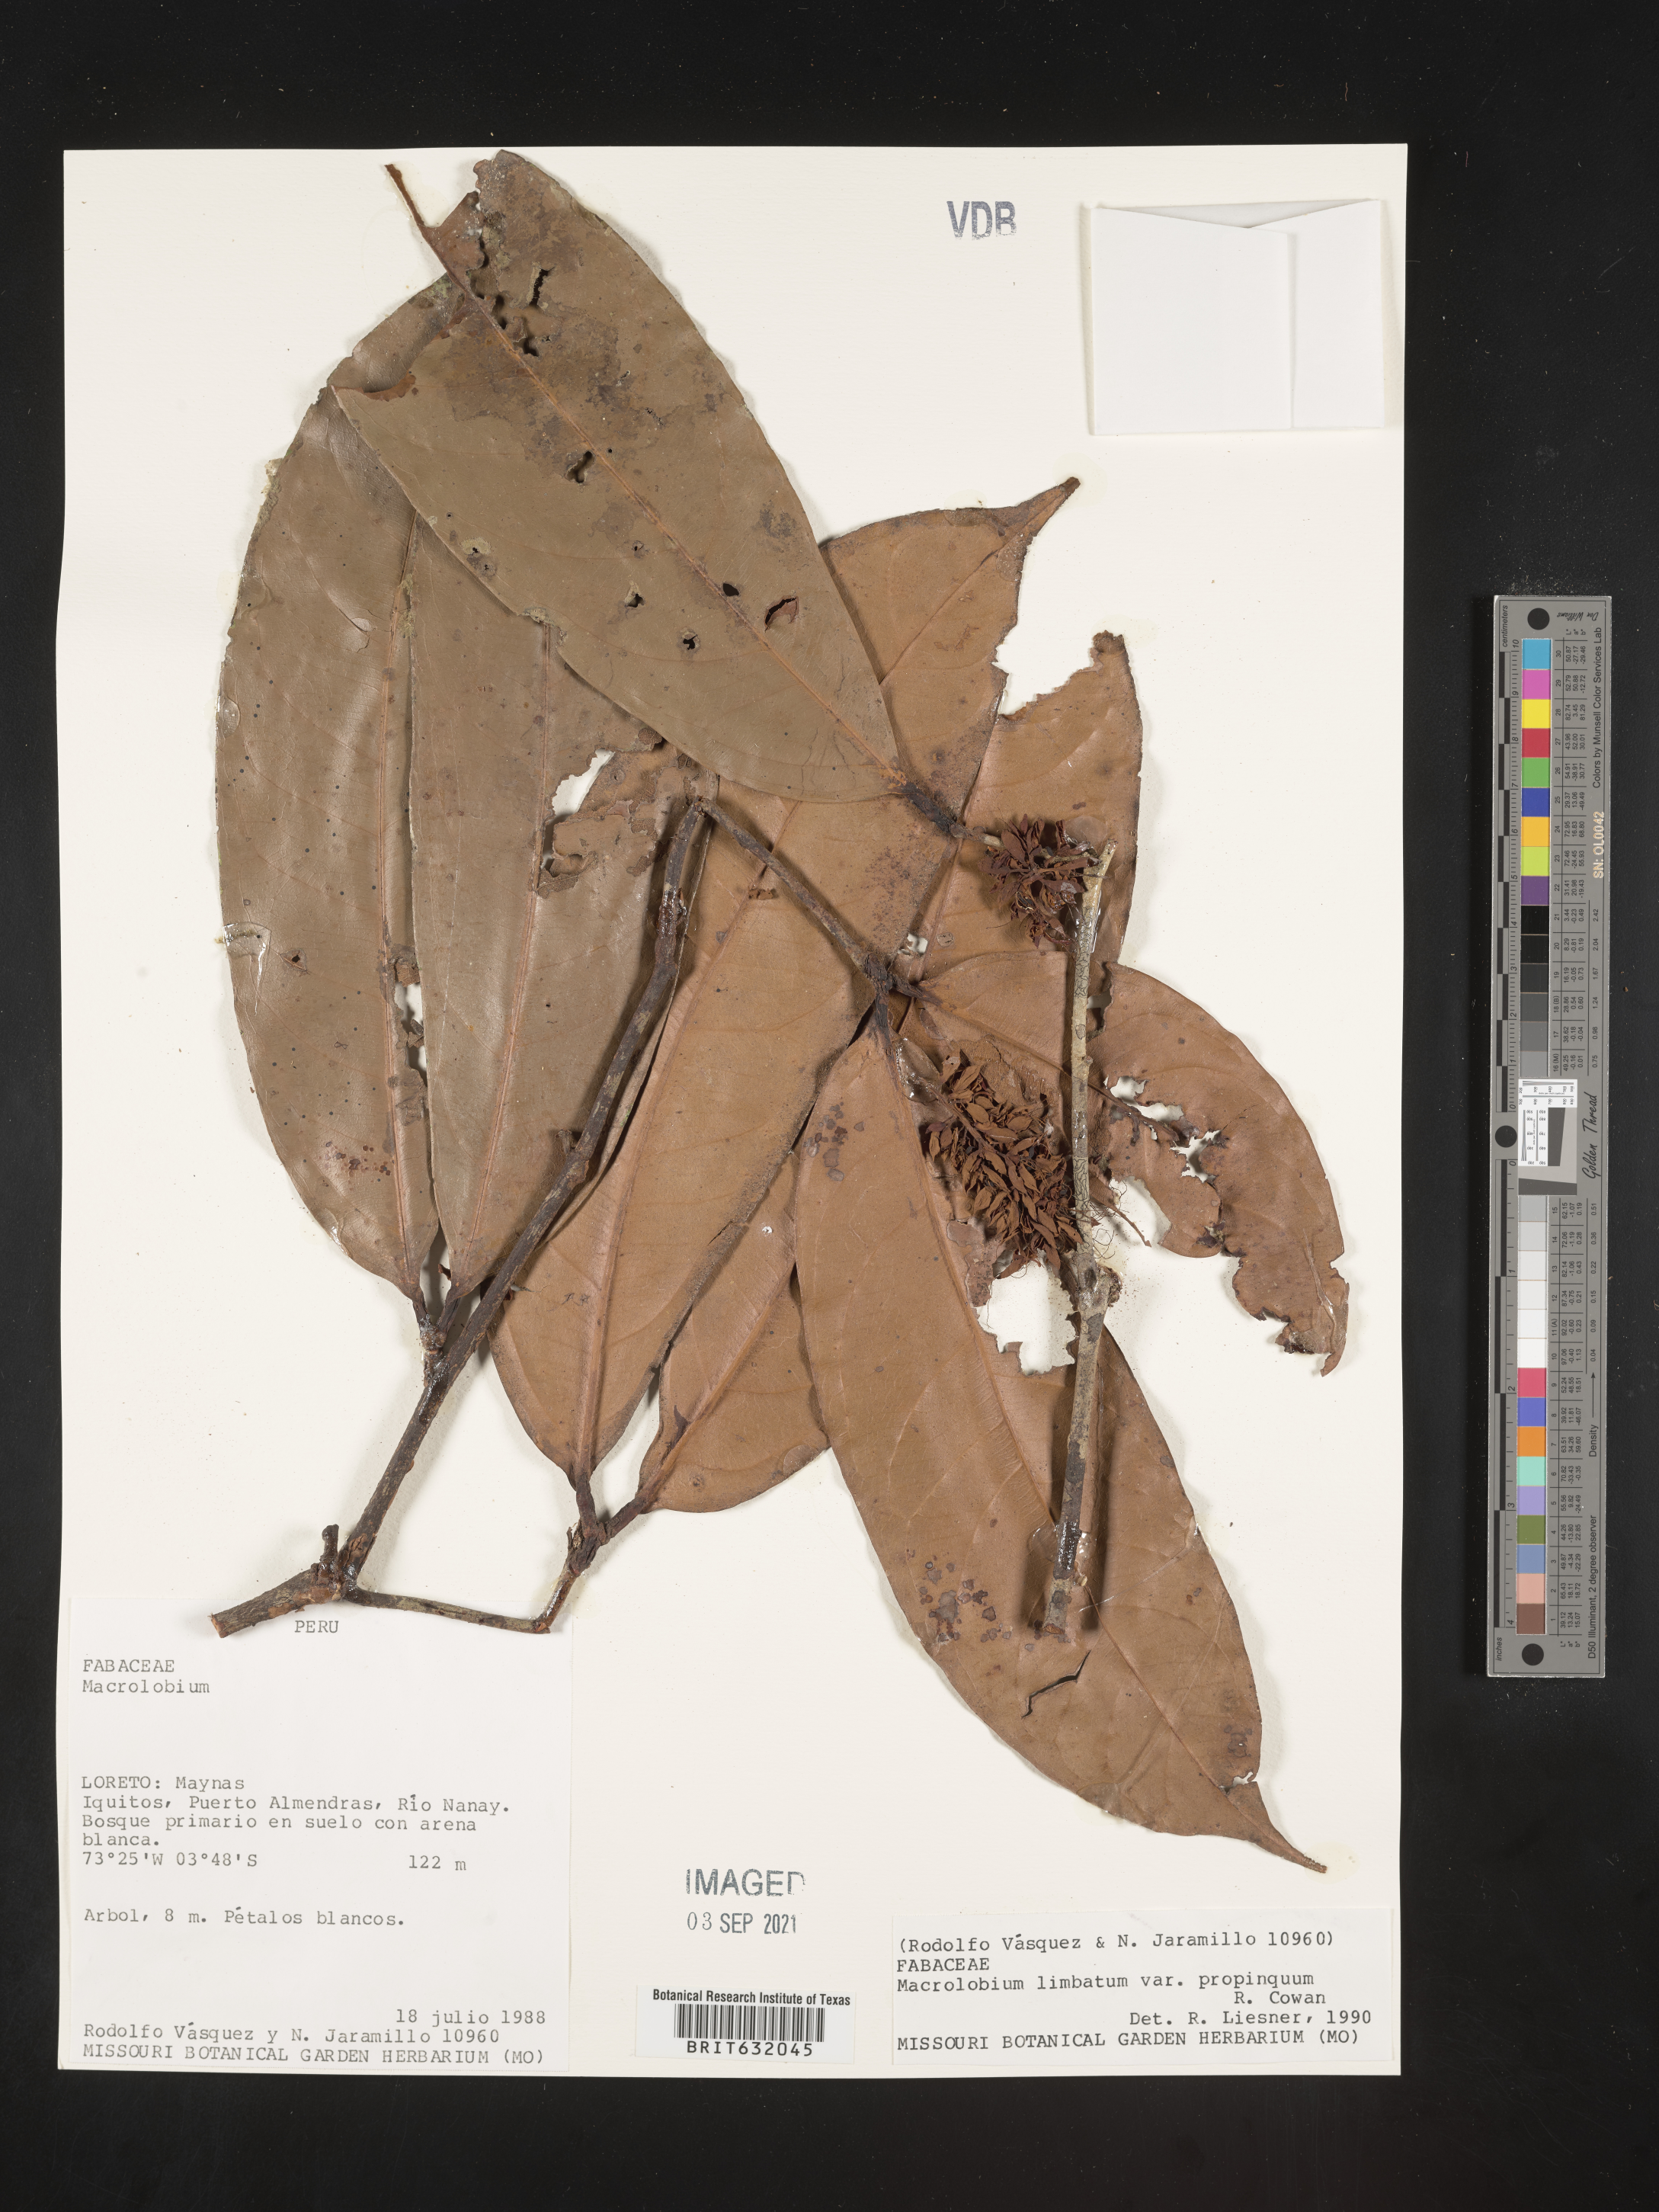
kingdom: Plantae
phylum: Tracheophyta
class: Magnoliopsida
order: Fabales
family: Fabaceae
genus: Macrolobium
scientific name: Macrolobium
